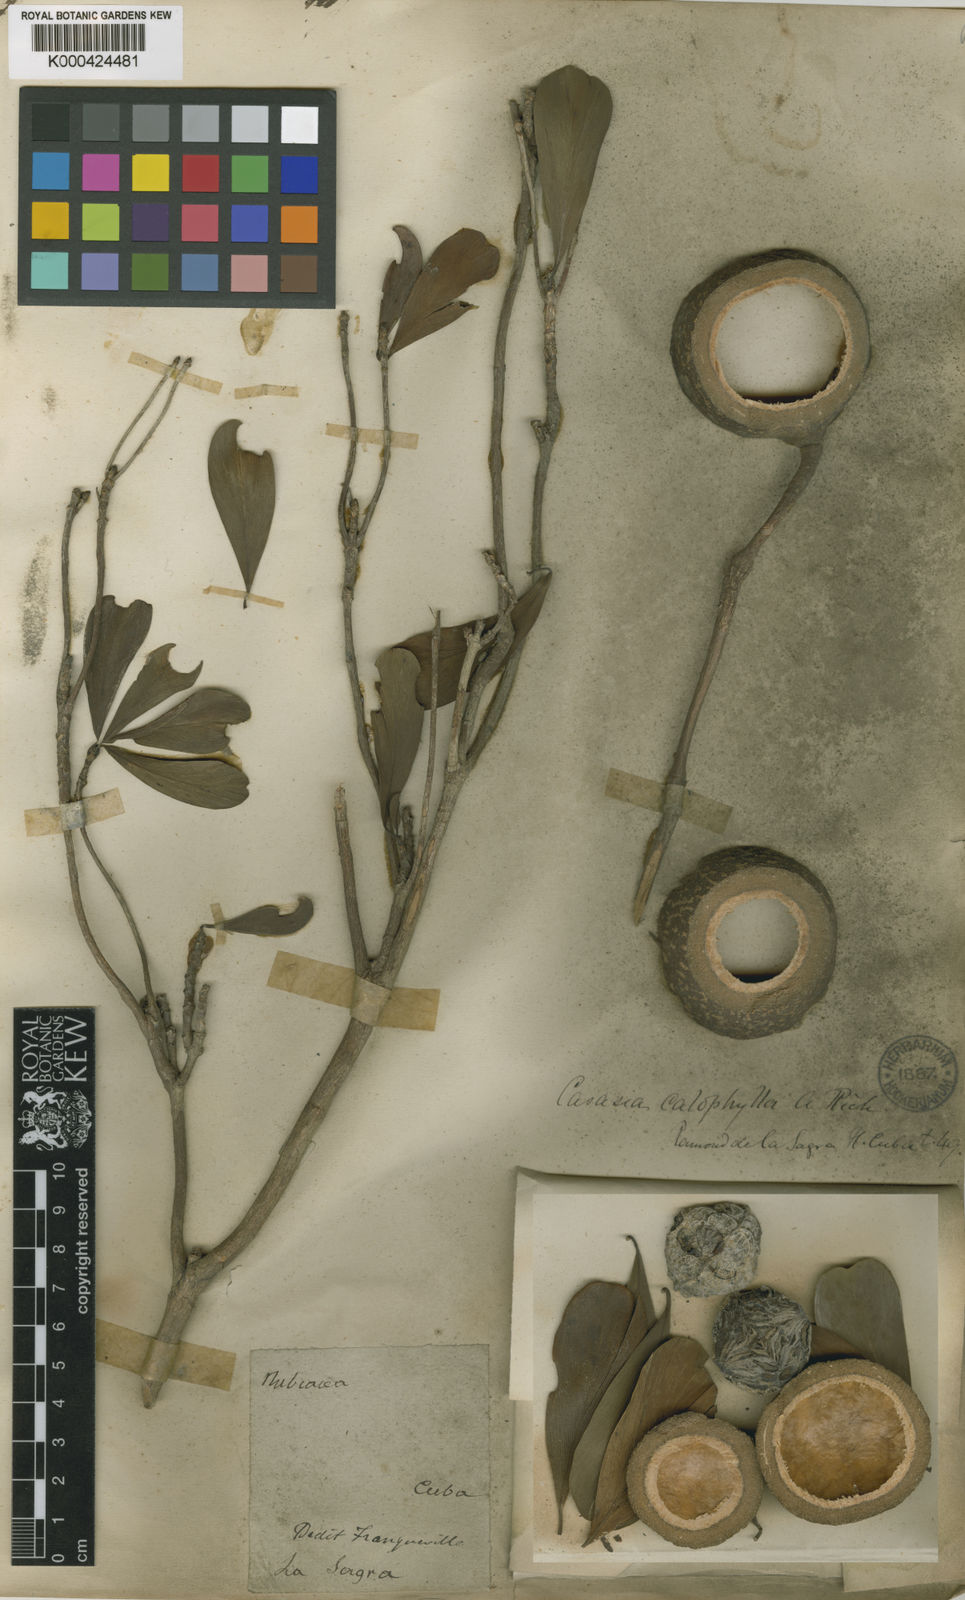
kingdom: Plantae
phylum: Tracheophyta
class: Magnoliopsida
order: Gentianales
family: Rubiaceae
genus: Casasia
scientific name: Casasia calophylla
